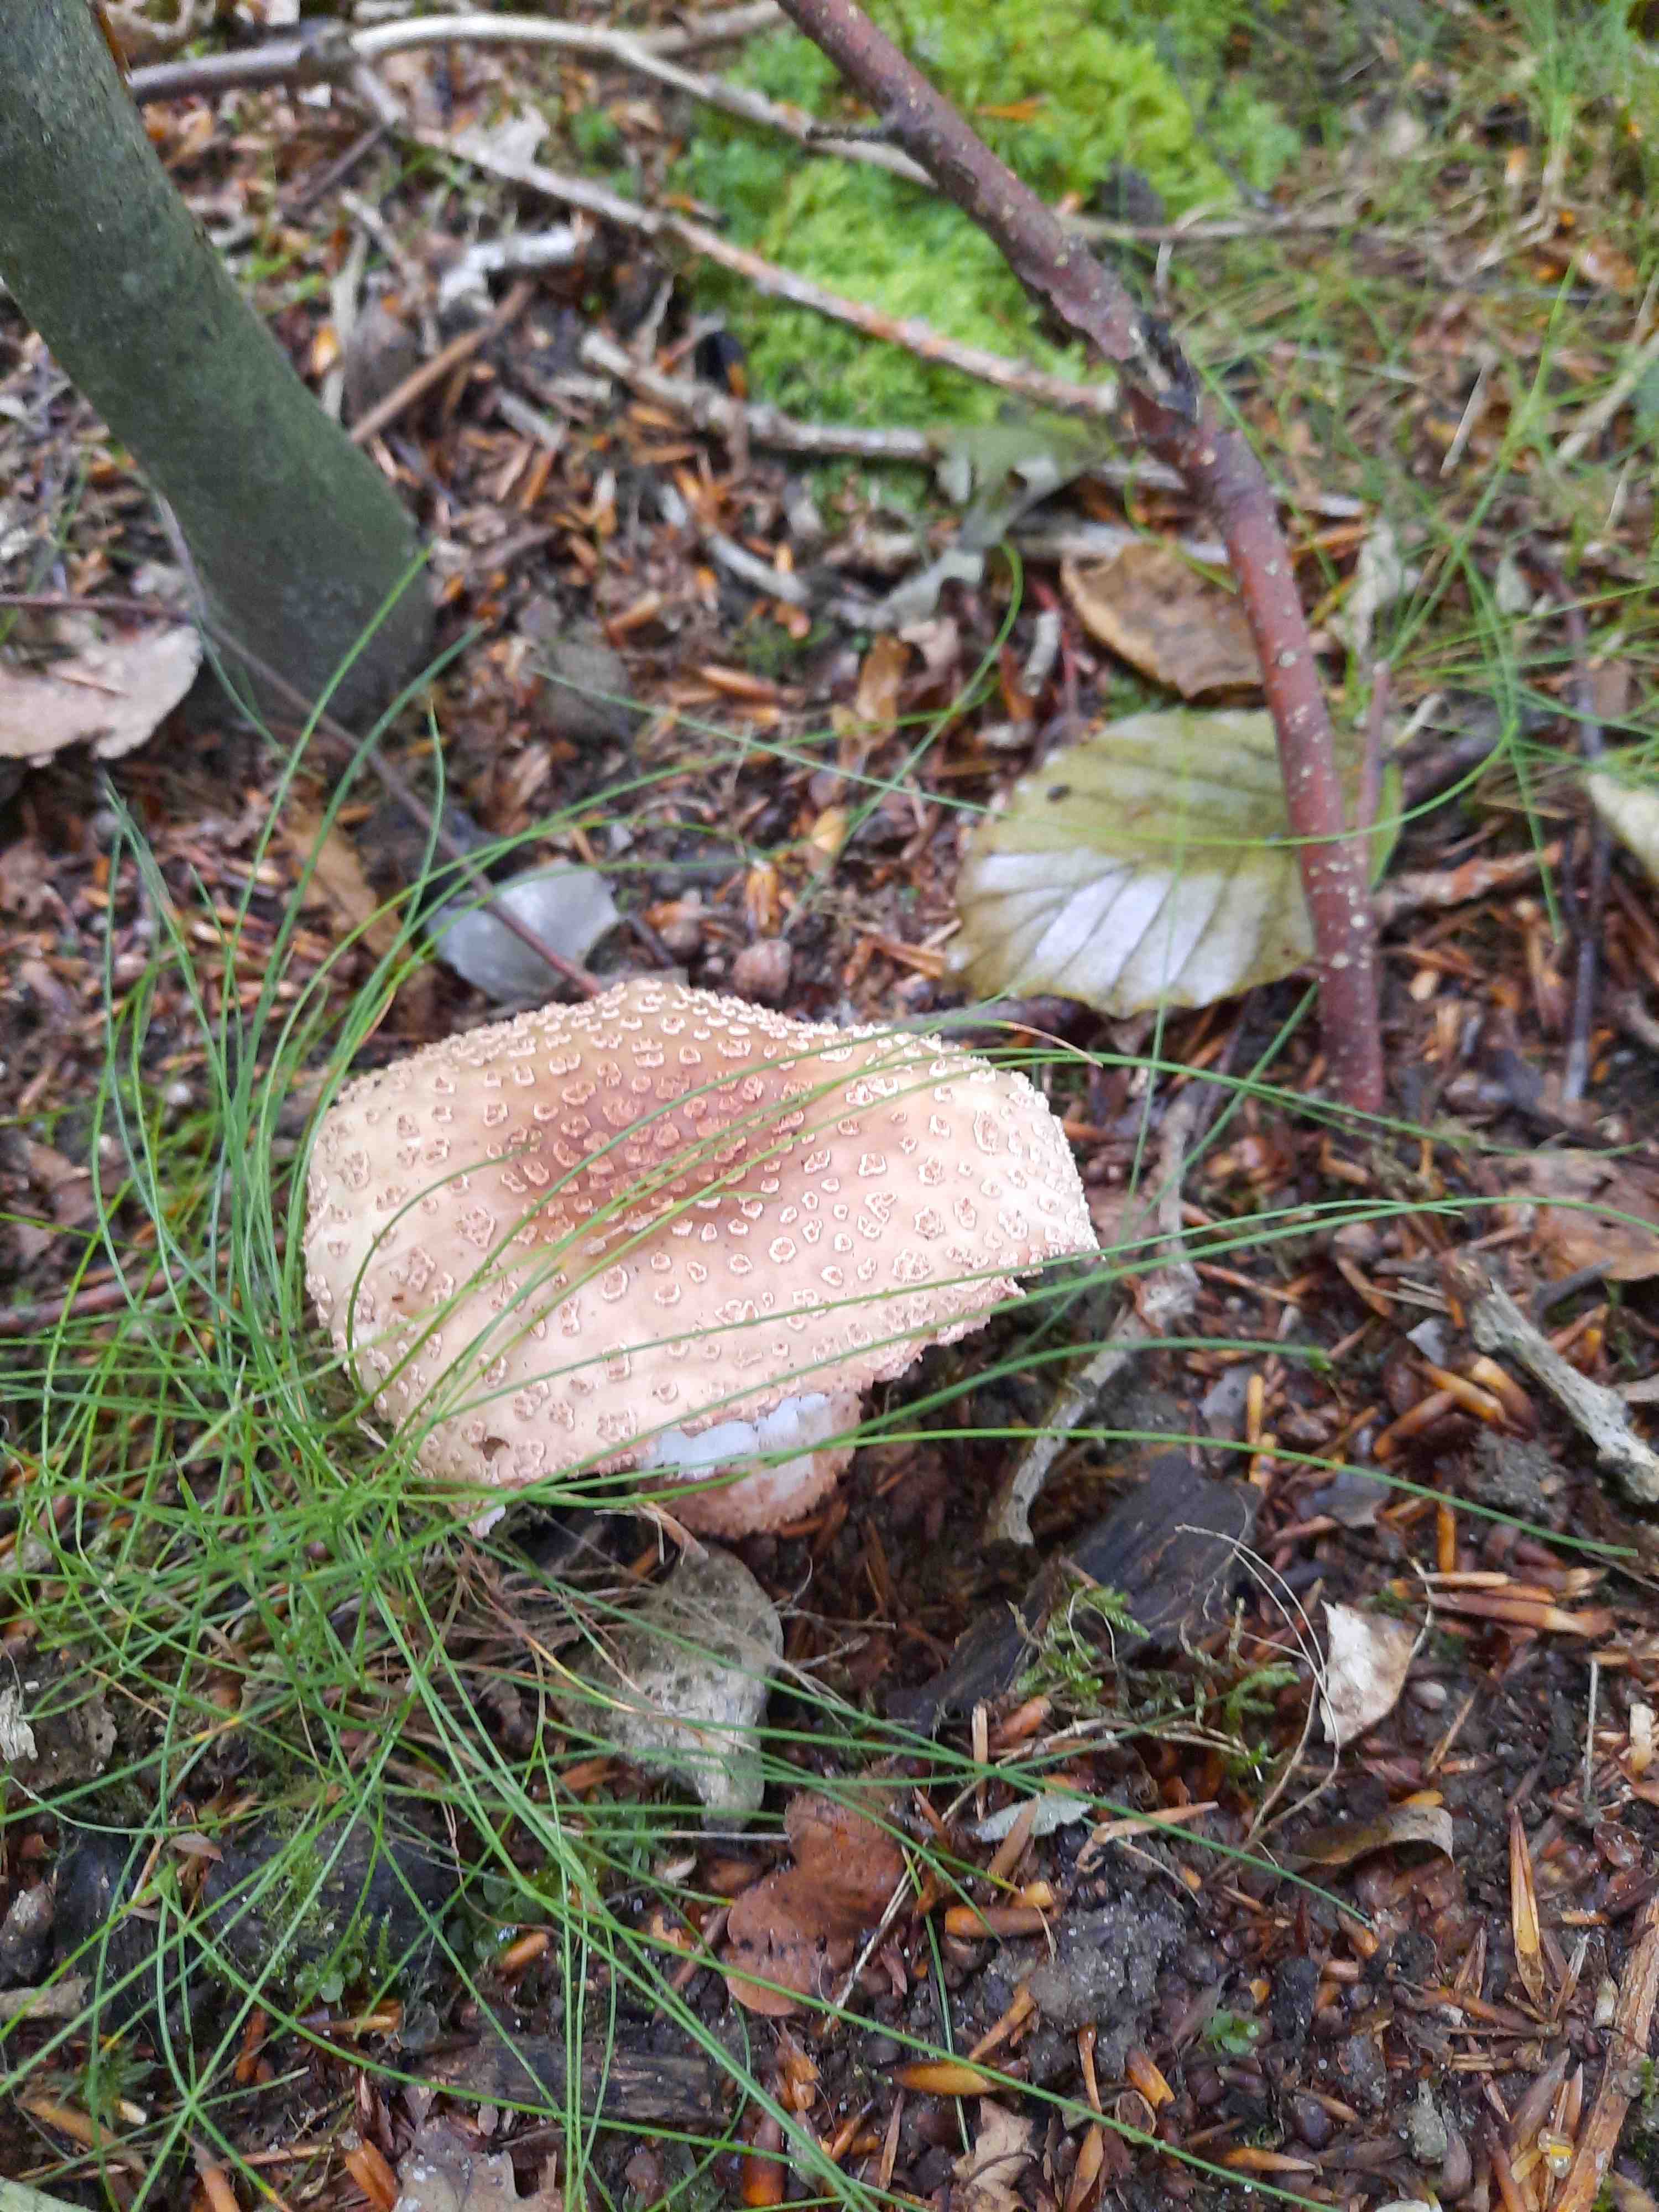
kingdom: Fungi
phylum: Basidiomycota
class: Agaricomycetes
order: Agaricales
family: Amanitaceae
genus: Amanita
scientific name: Amanita rubescens
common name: rødmende fluesvamp
